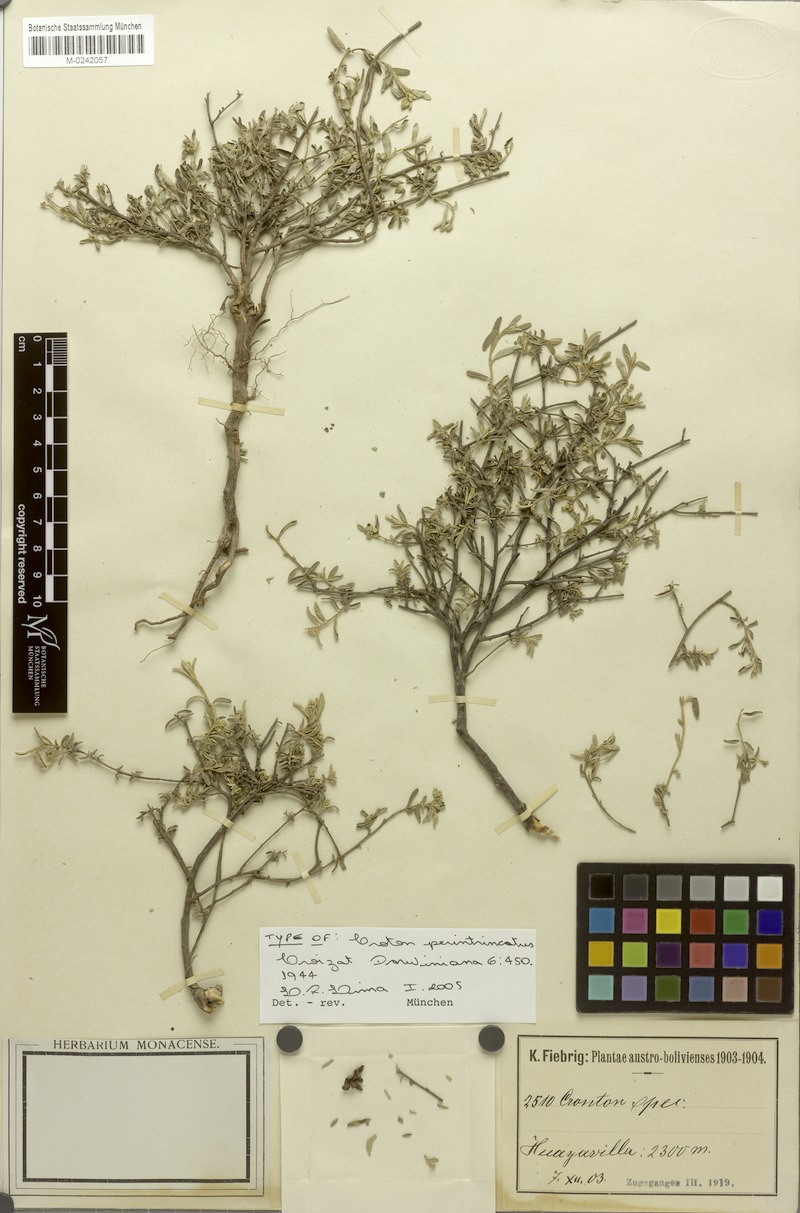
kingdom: Plantae
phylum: Tracheophyta
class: Magnoliopsida
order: Malpighiales
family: Euphorbiaceae
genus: Croton
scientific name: Croton perintricatus
